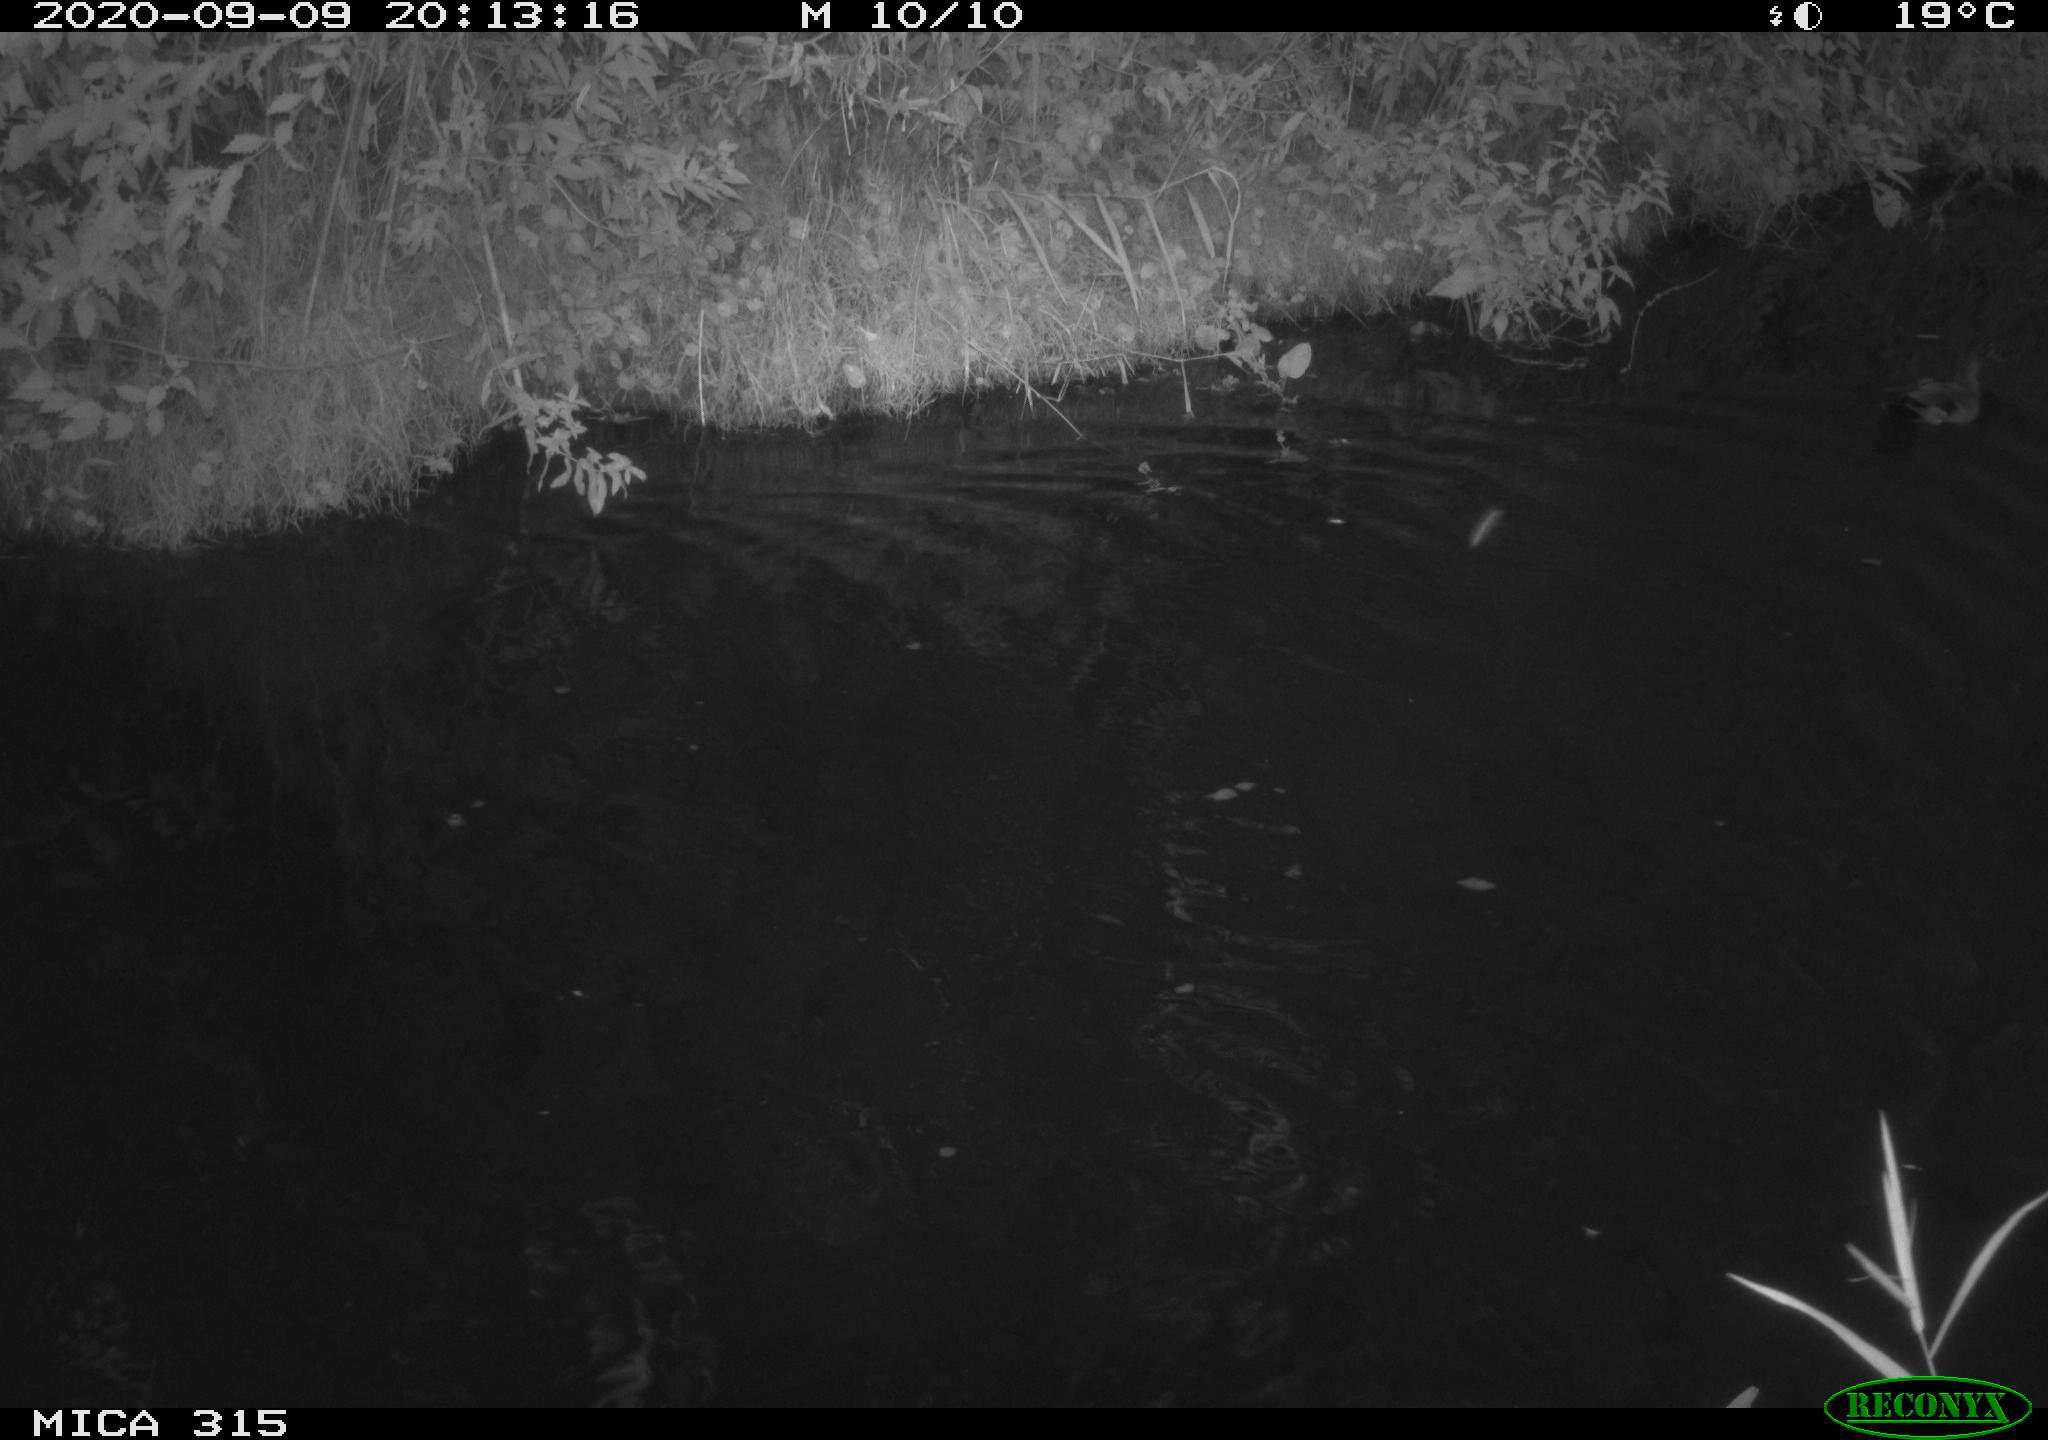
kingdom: Animalia
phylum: Chordata
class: Aves
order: Anseriformes
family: Anatidae
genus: Anas
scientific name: Anas platyrhynchos
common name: Mallard
